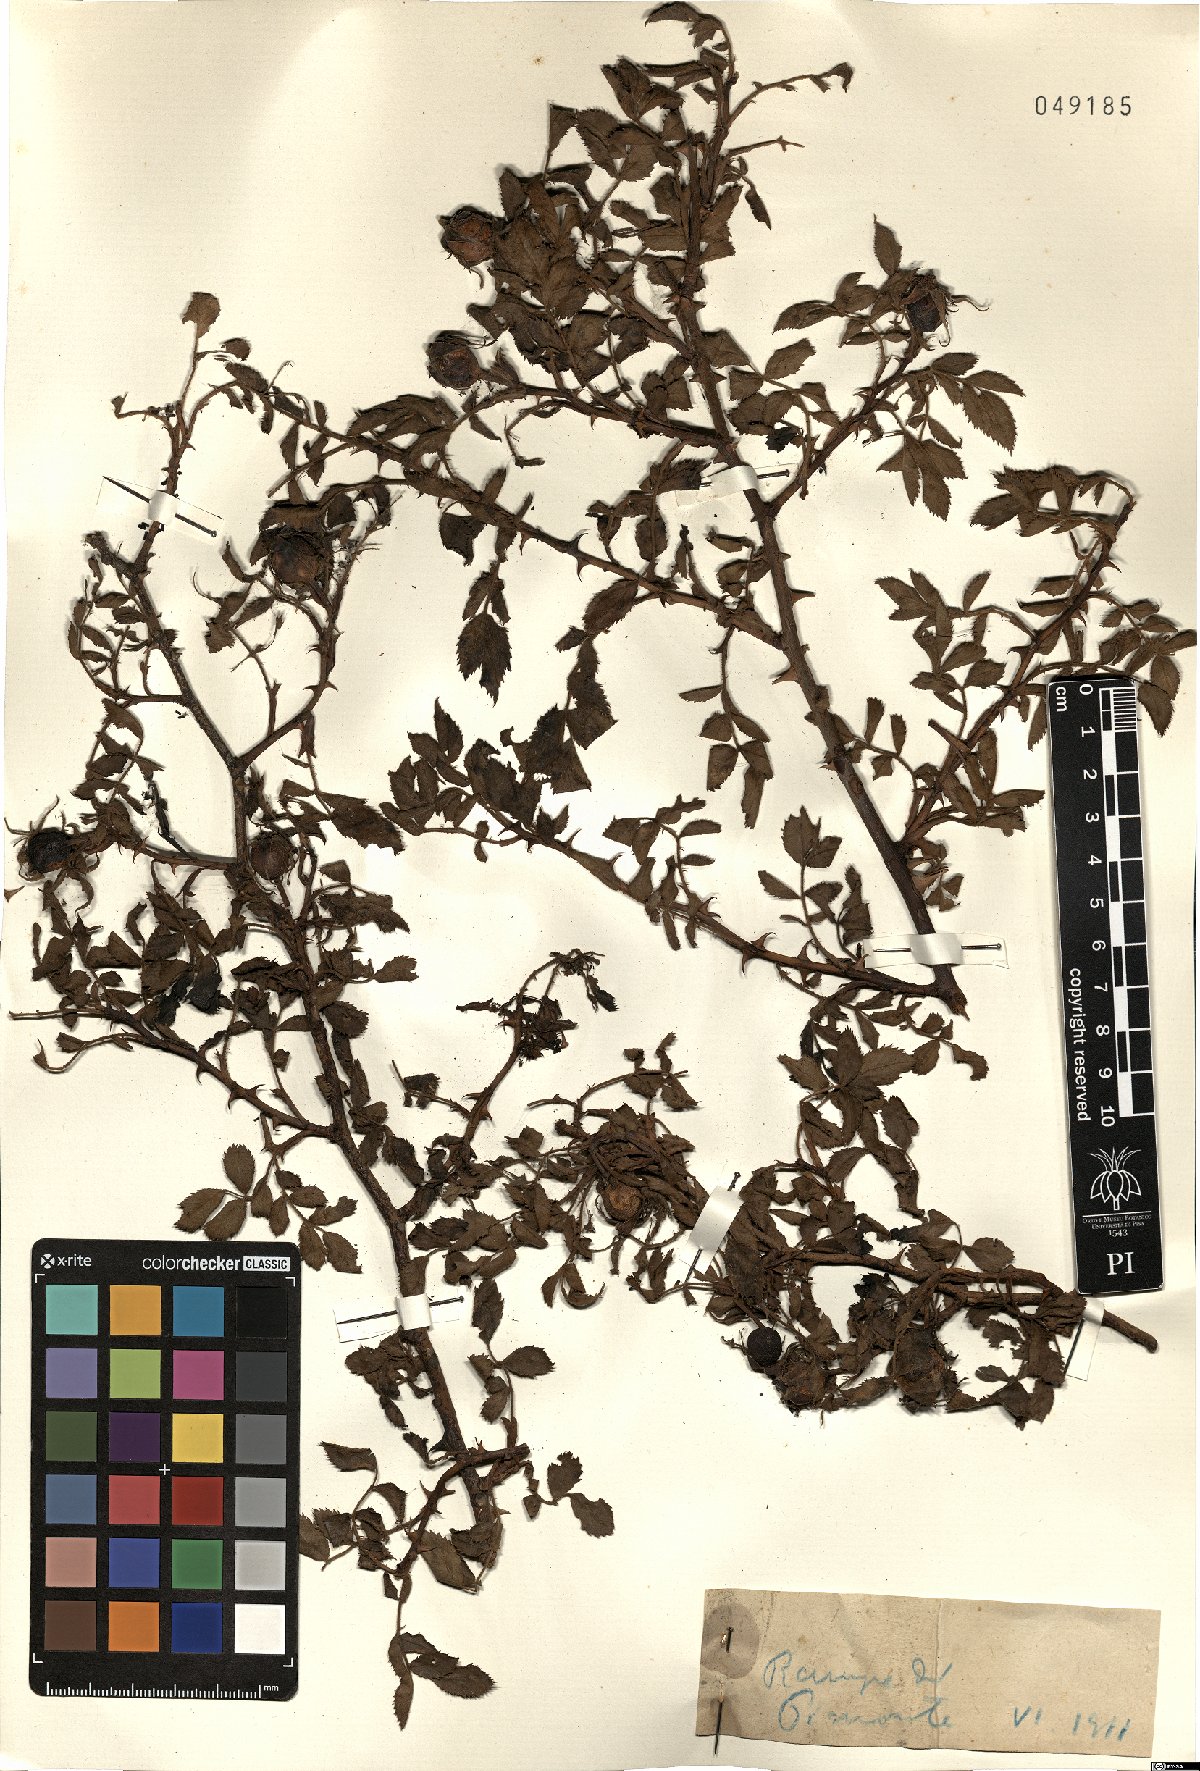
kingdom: Plantae
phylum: Tracheophyta
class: Magnoliopsida
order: Rosales
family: Rosaceae
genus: Rosa
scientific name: Rosa
